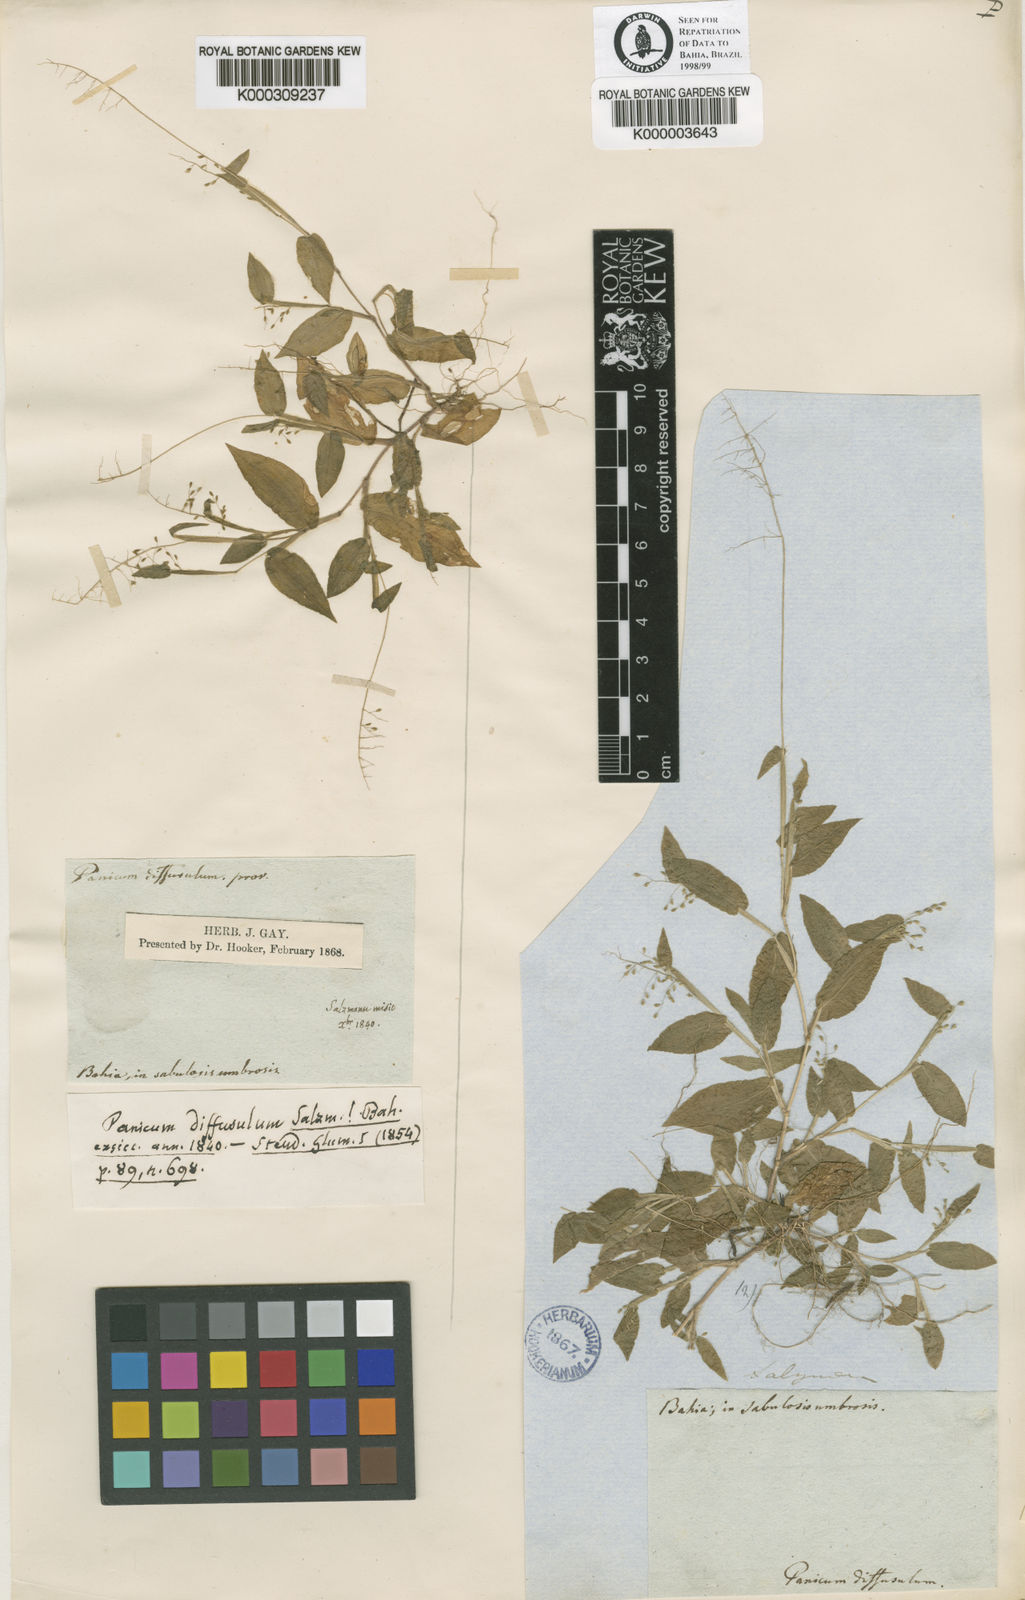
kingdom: Plantae
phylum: Tracheophyta
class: Liliopsida
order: Poales
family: Poaceae
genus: Dichanthelium
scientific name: Dichanthelium sciurotis
